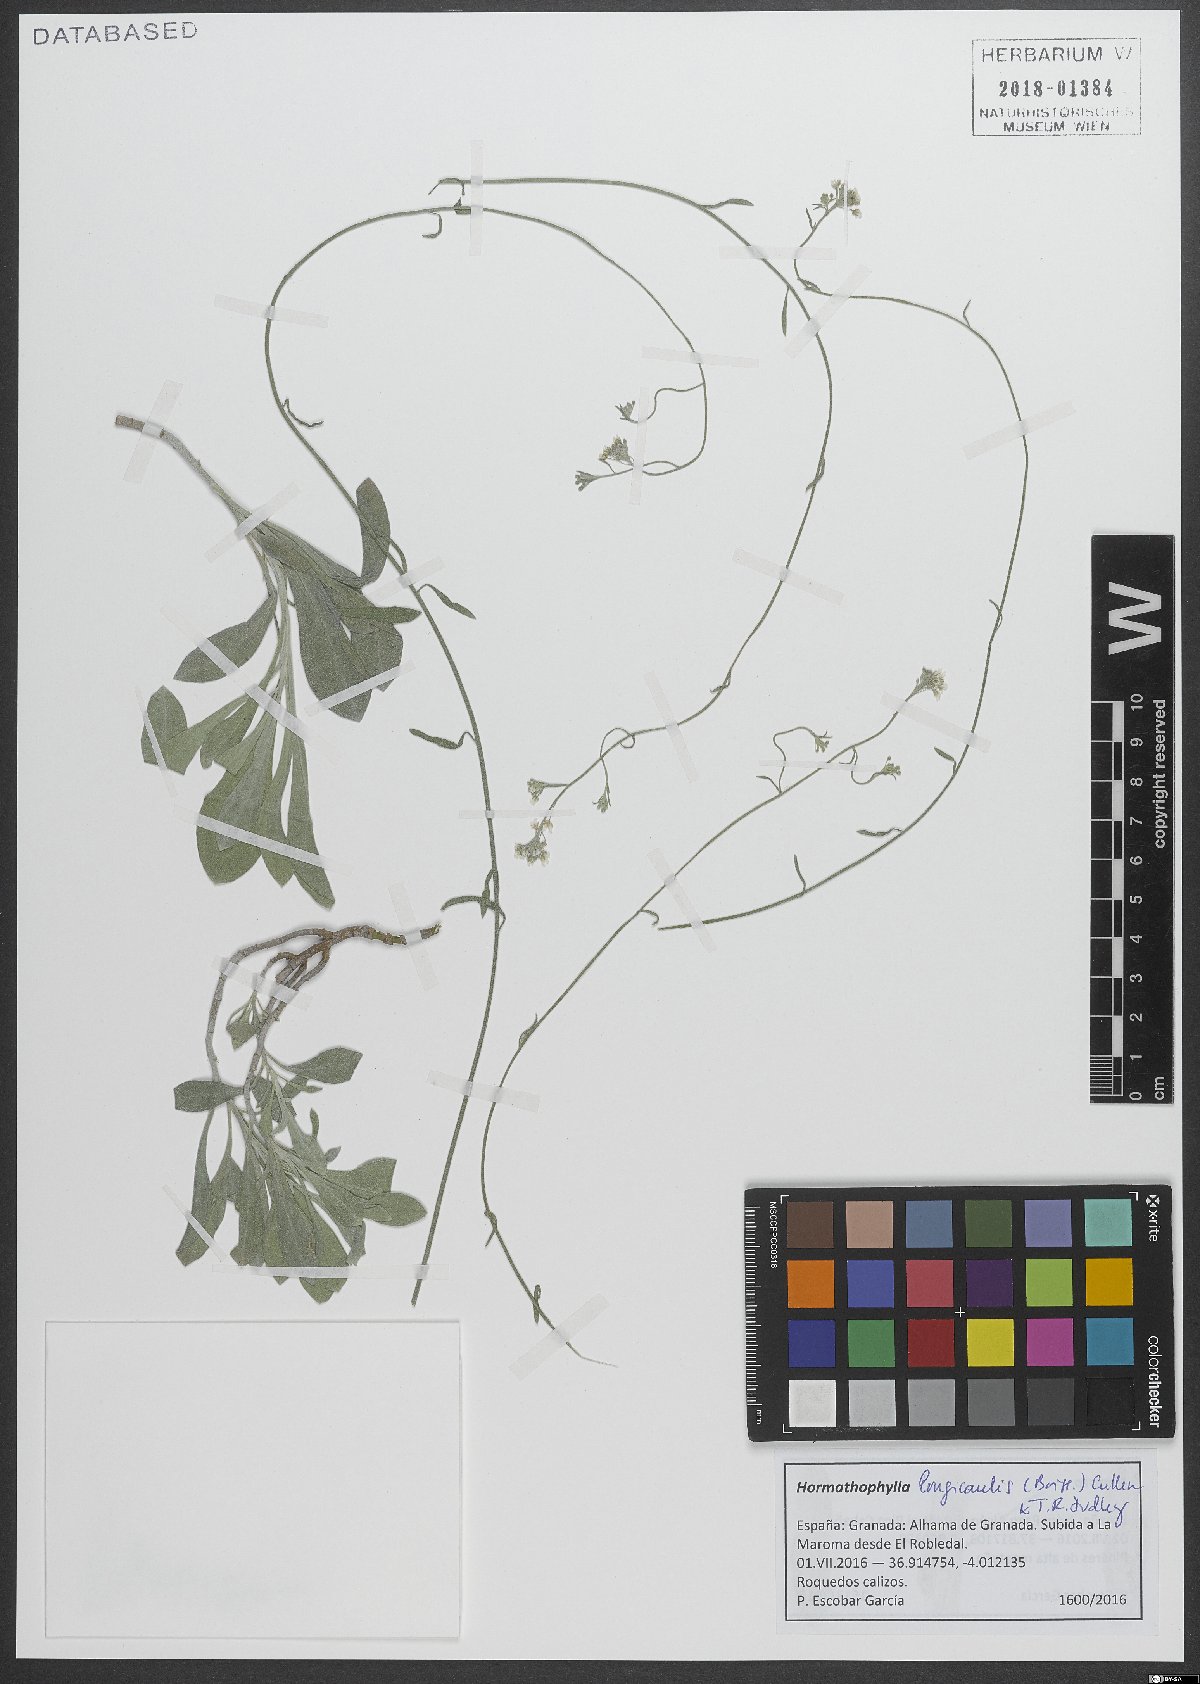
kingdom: Plantae
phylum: Tracheophyta
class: Magnoliopsida
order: Brassicales
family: Brassicaceae
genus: Hormathophylla
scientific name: Hormathophylla longicaulis
